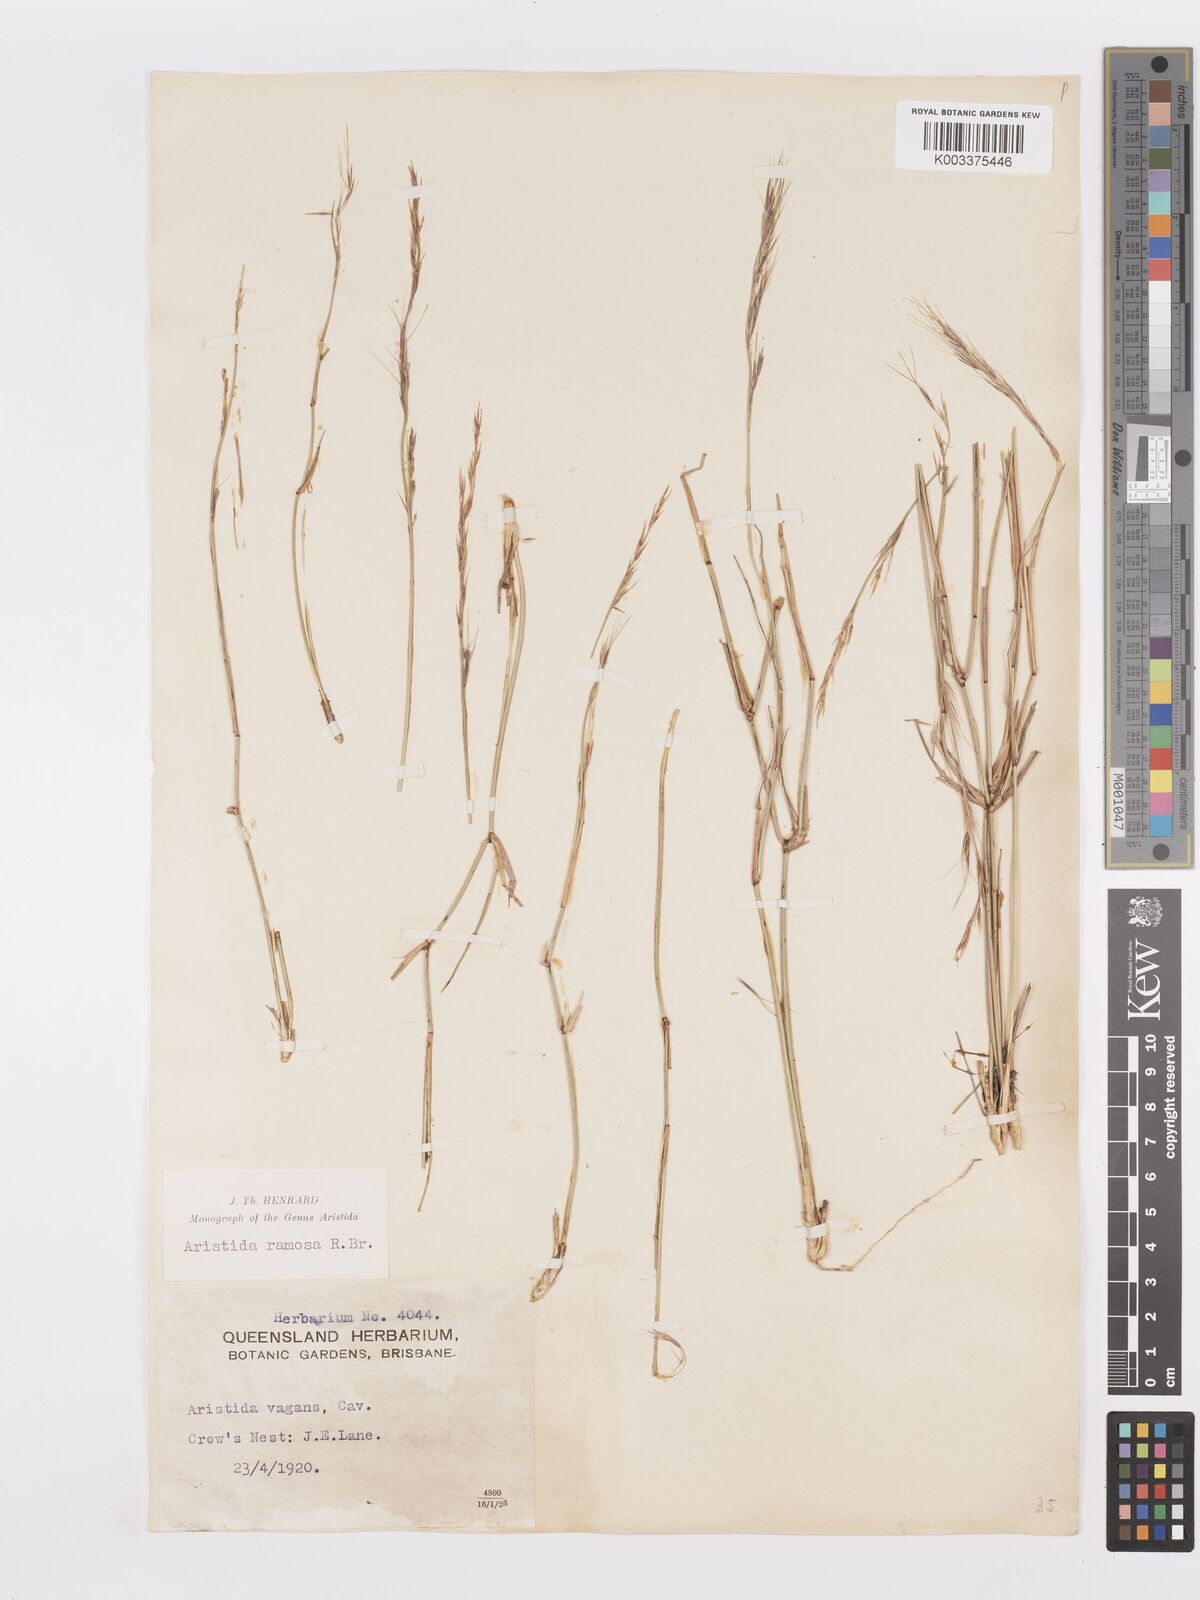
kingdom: Plantae
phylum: Tracheophyta
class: Liliopsida
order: Poales
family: Poaceae
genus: Aristida
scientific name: Aristida ramosa
